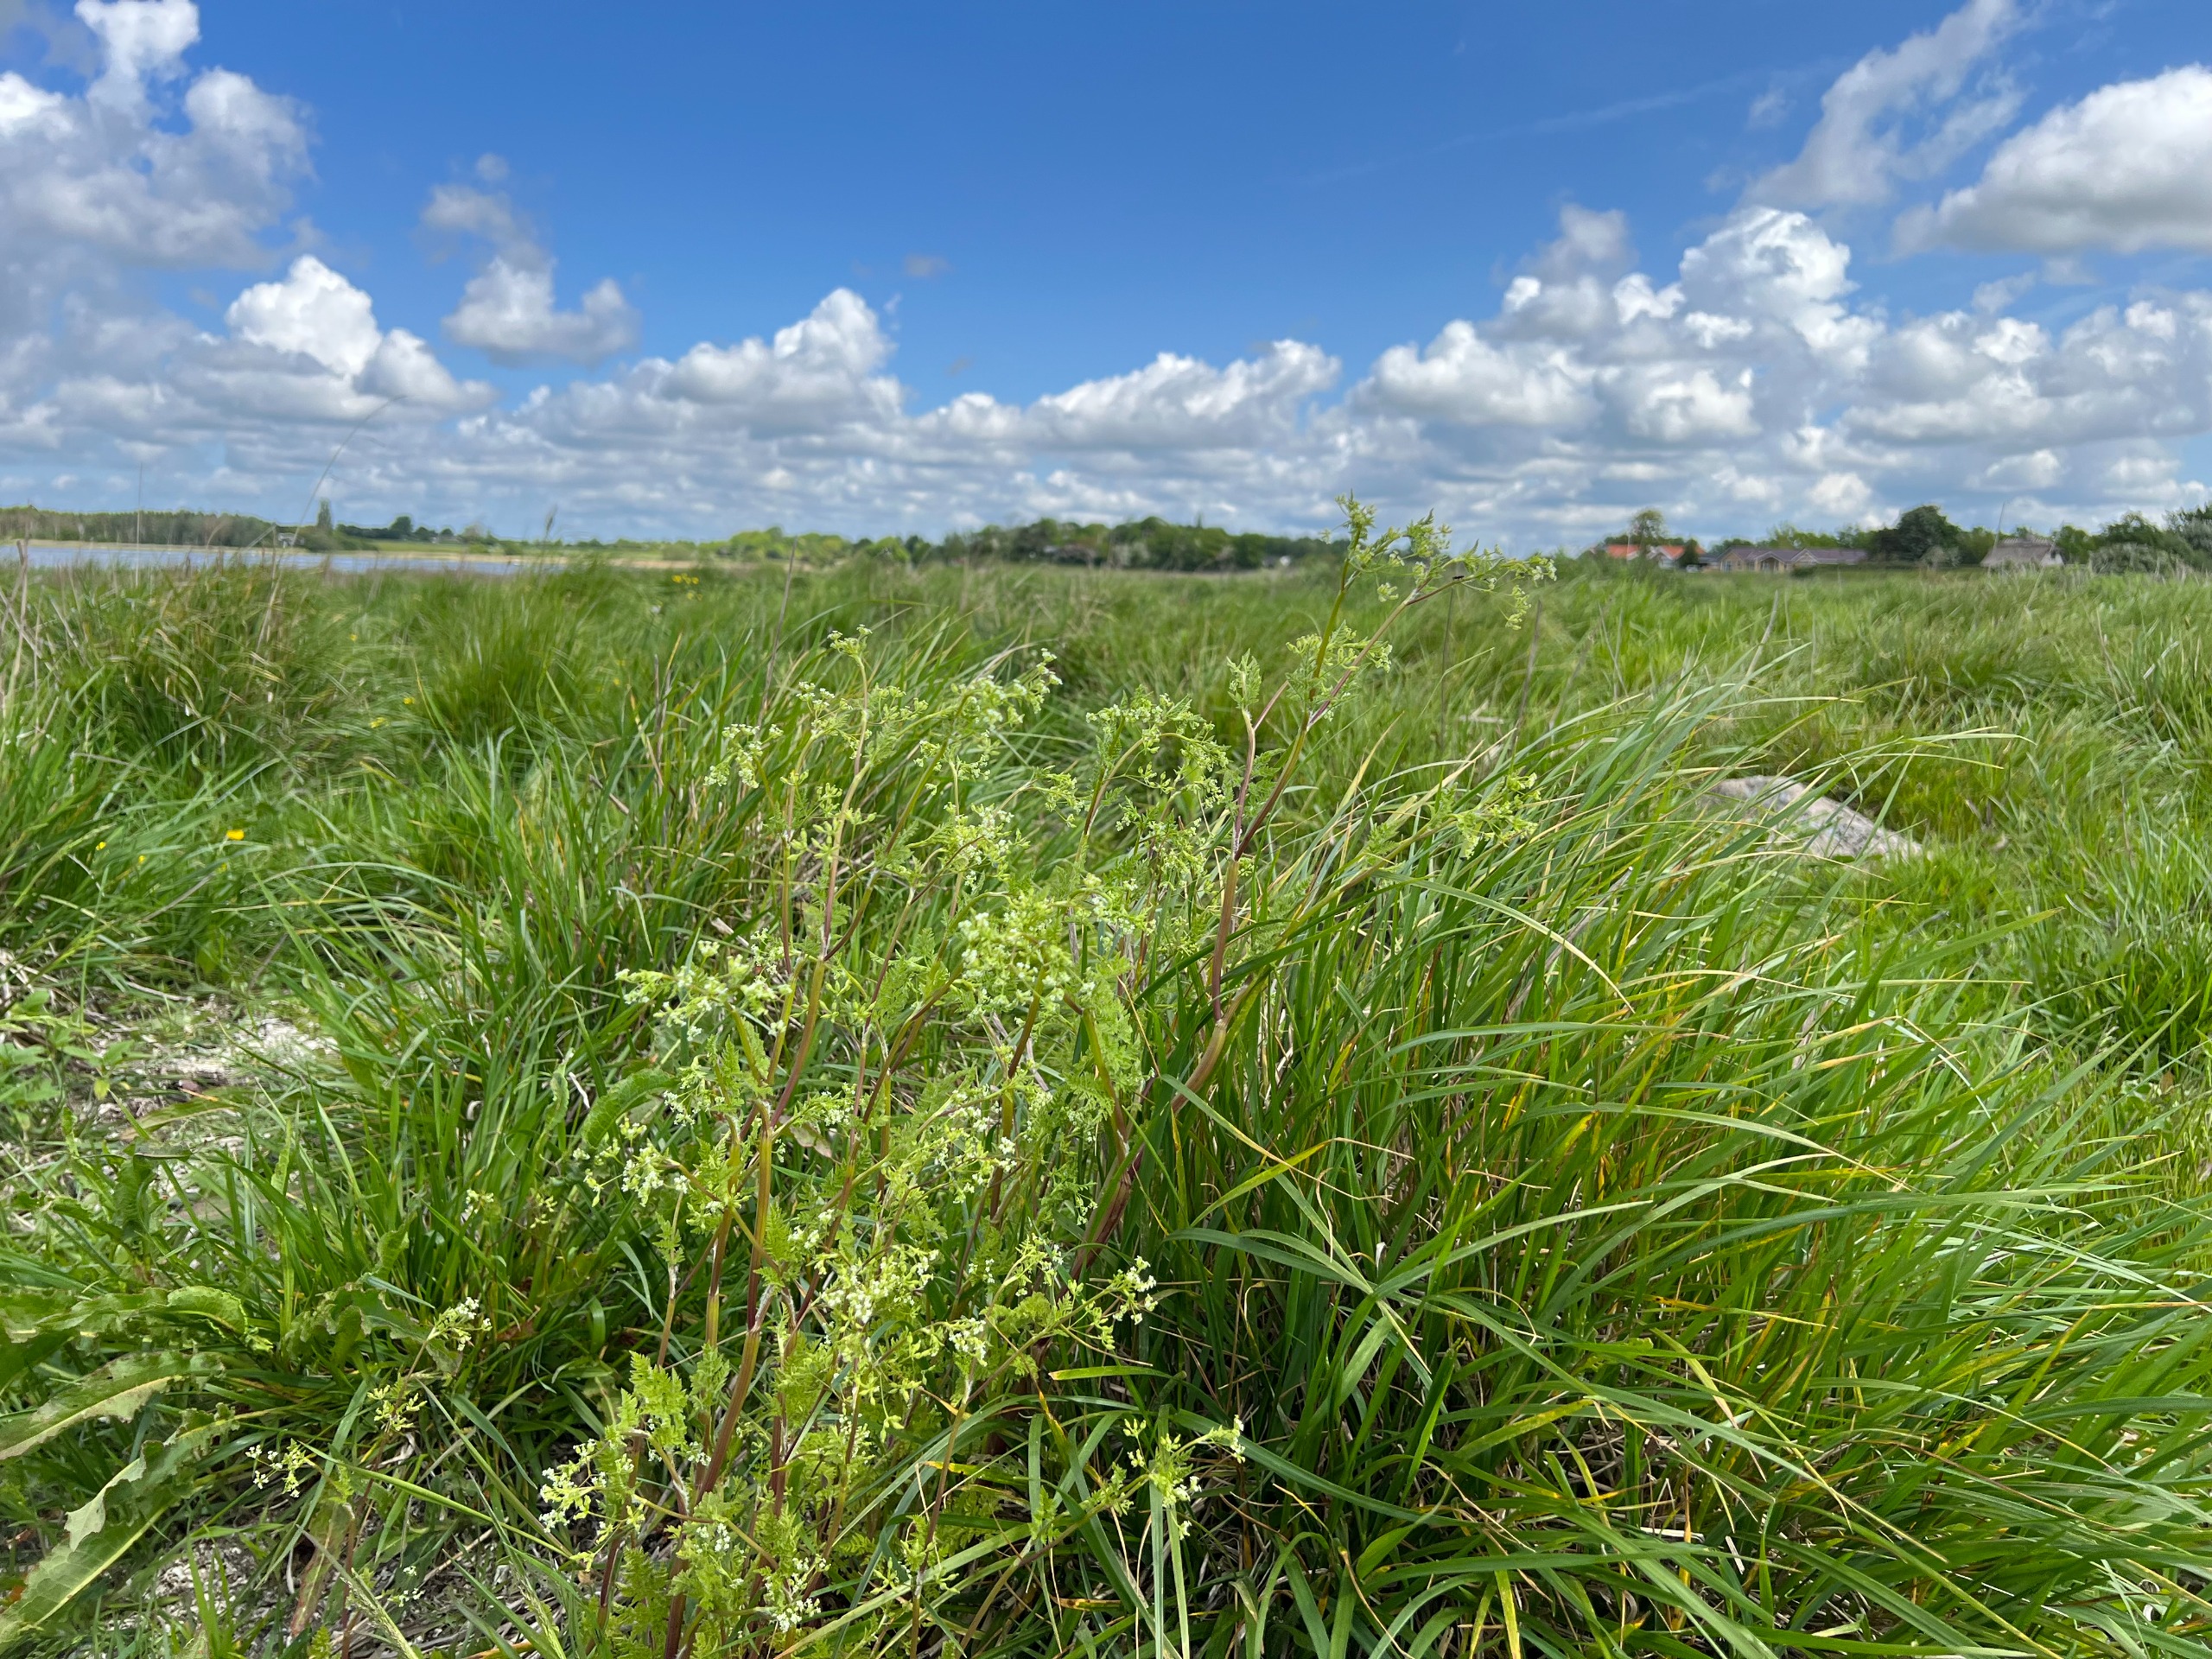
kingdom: Plantae
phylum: Tracheophyta
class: Magnoliopsida
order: Apiales
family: Apiaceae
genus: Anthriscus
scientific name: Anthriscus caucalis
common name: Gærde-kørvel
